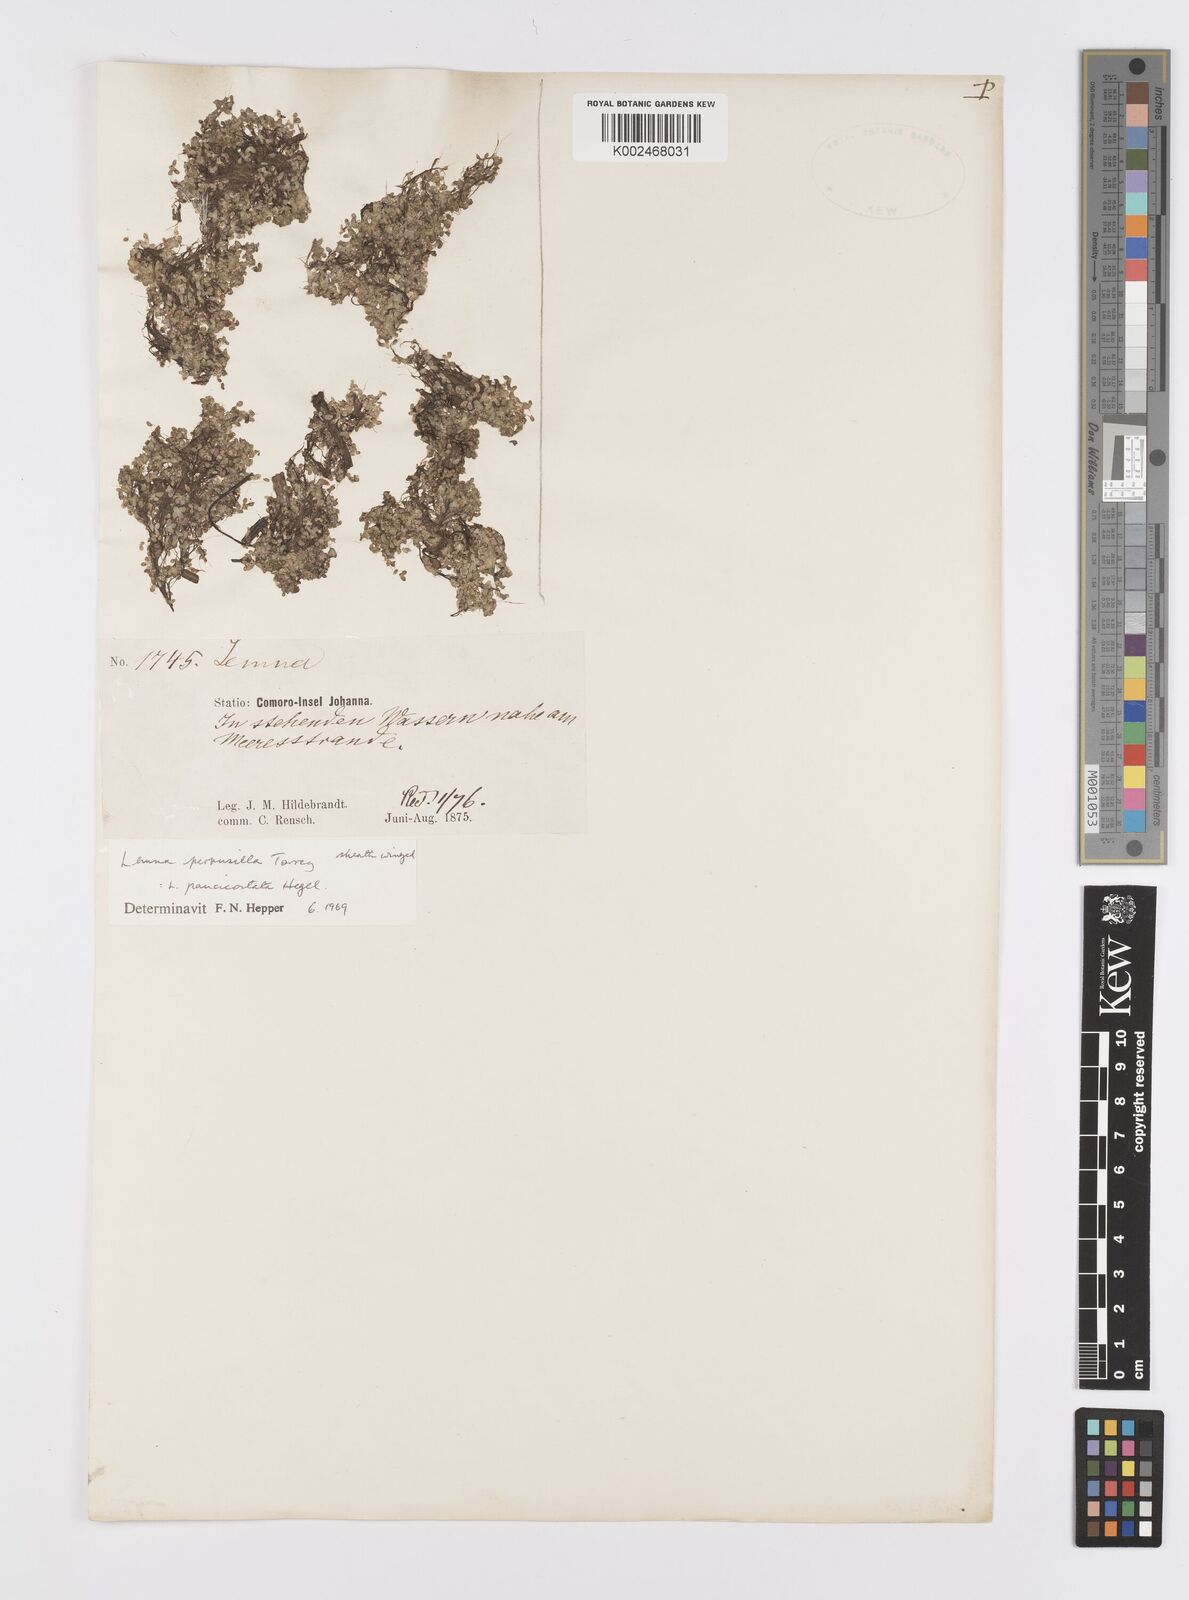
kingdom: Plantae
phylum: Tracheophyta
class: Liliopsida
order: Alismatales
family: Araceae
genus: Lemna
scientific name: Lemna perpusilla
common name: Duckweed
